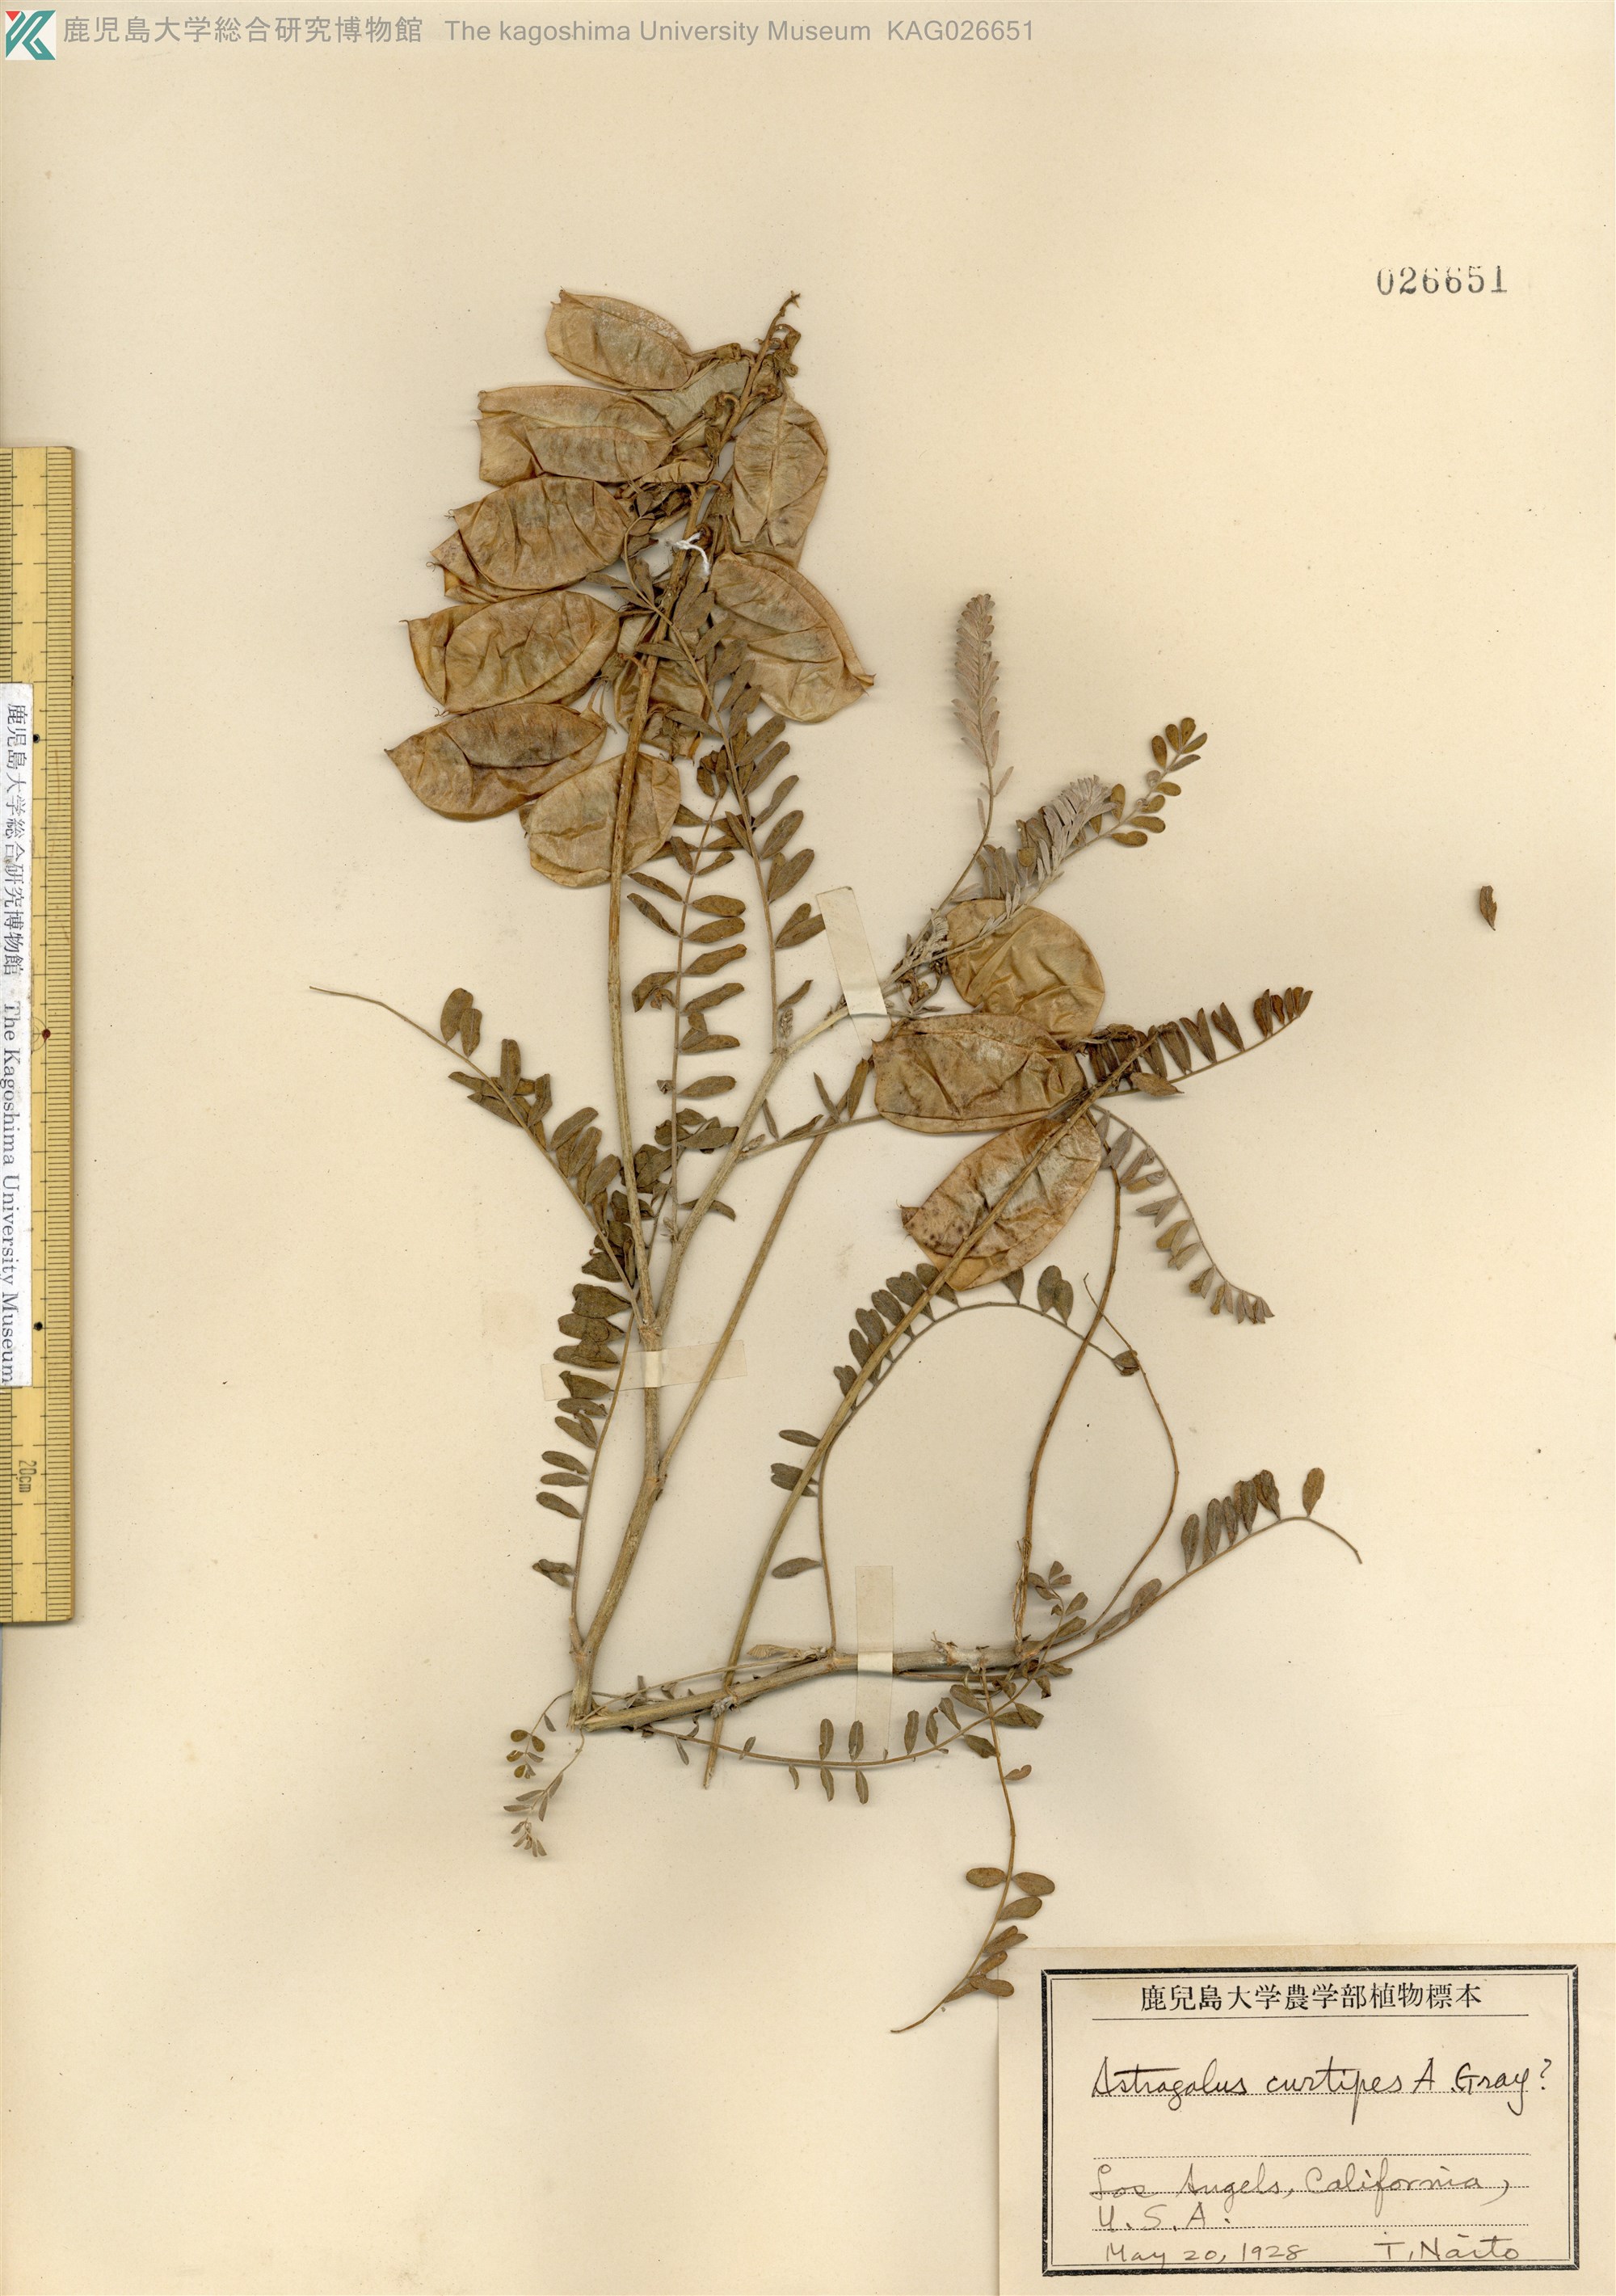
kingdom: Plantae
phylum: Tracheophyta
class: Magnoliopsida
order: Fabales
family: Fabaceae
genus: Astragalus
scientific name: Astragalus curtipes
